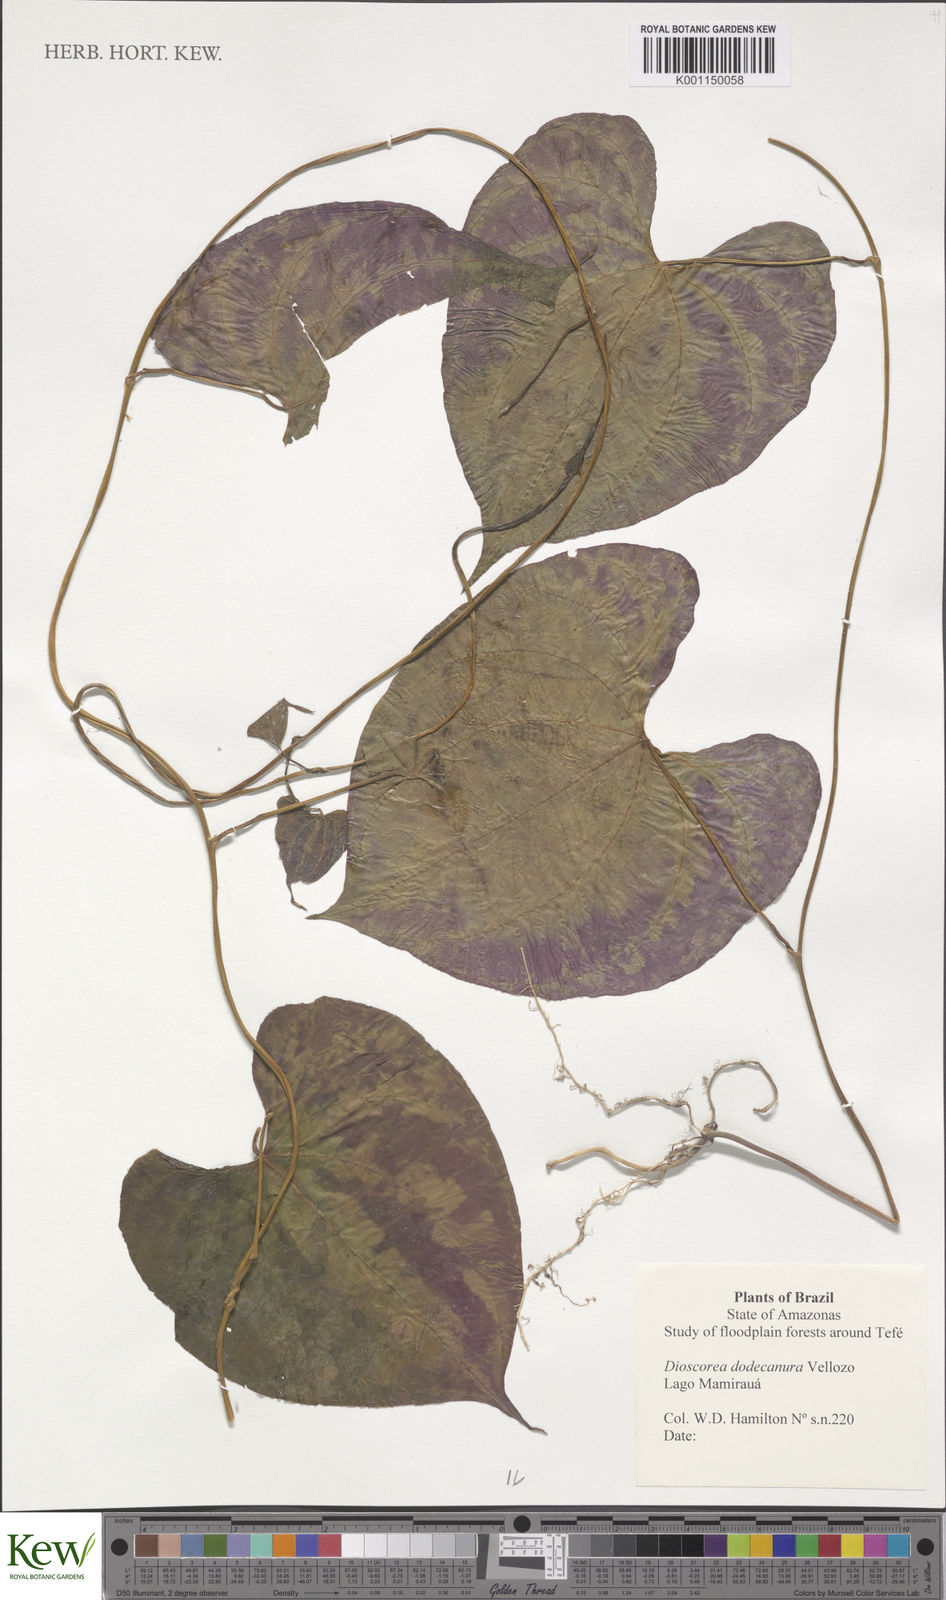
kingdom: Plantae
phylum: Tracheophyta
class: Liliopsida
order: Dioscoreales
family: Dioscoreaceae
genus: Dioscorea
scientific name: Dioscorea dodecaneura
